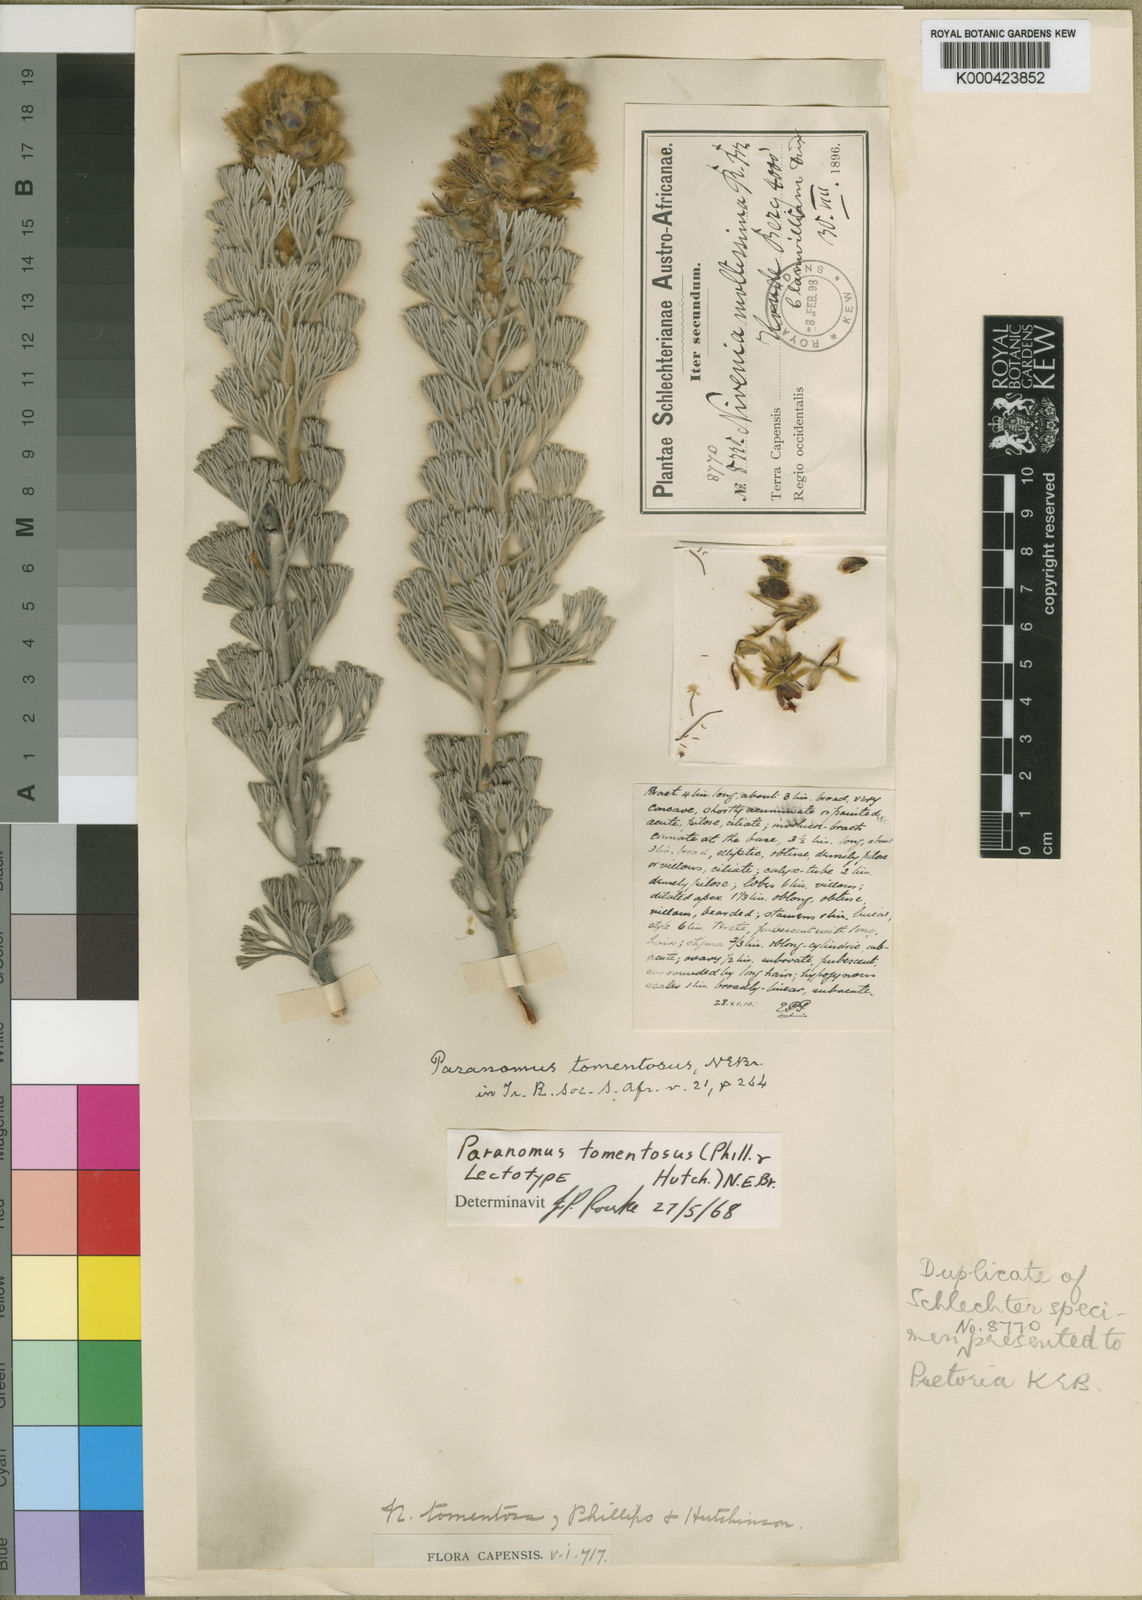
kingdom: Plantae
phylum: Tracheophyta
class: Magnoliopsida
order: Proteales
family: Proteaceae
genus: Paranomus
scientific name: Paranomus tomentosus
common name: Hairy-leaf tree sceptre
